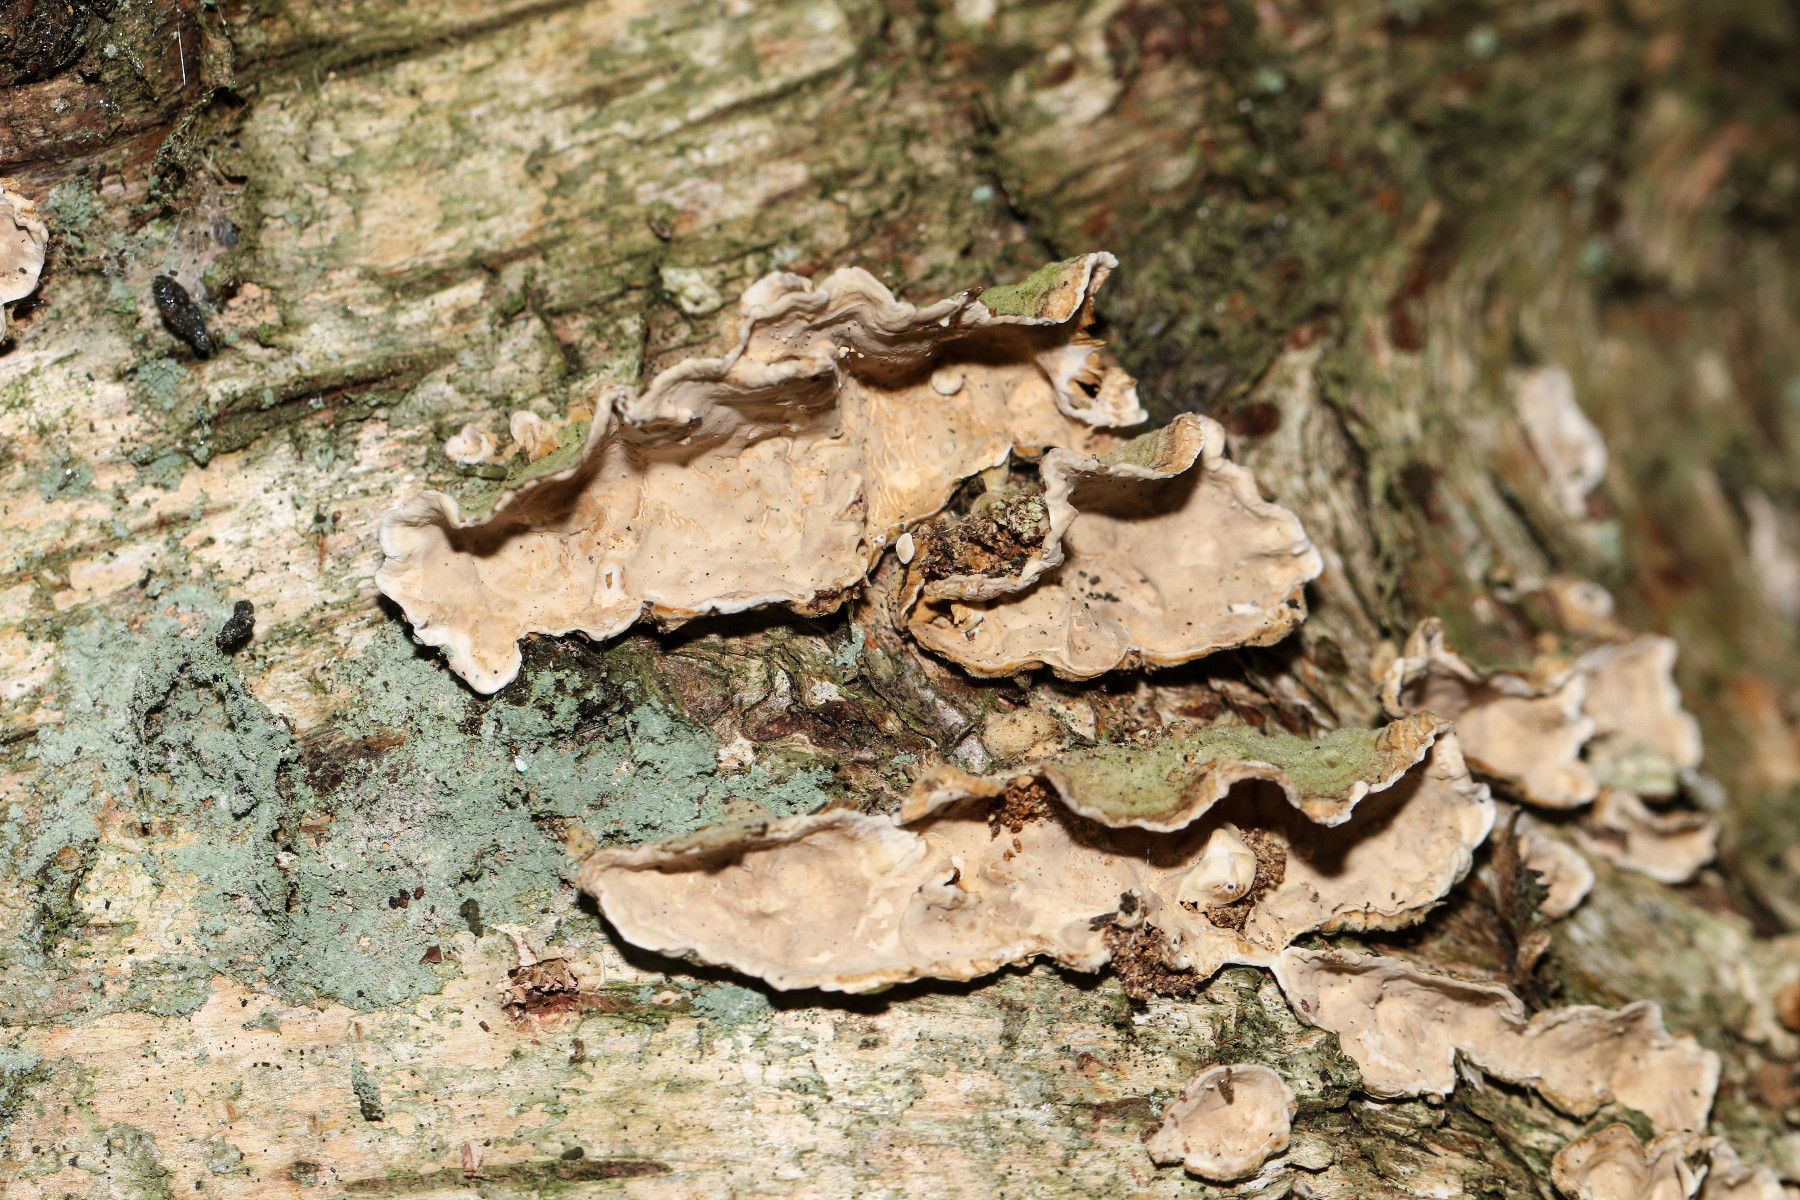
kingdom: Fungi
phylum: Basidiomycota
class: Agaricomycetes
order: Russulales
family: Stereaceae
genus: Stereum
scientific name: Stereum
